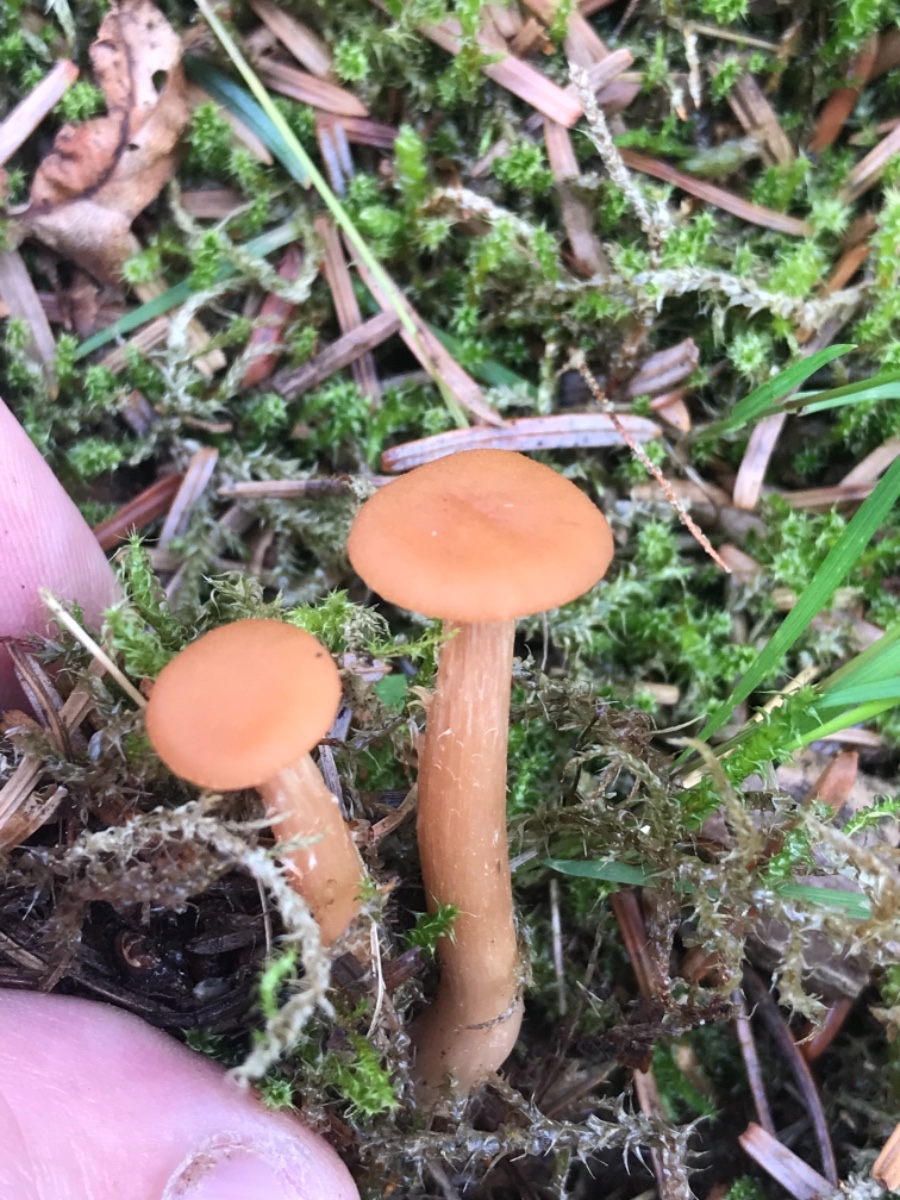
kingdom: Fungi
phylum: Basidiomycota
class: Agaricomycetes
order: Agaricales
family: Hydnangiaceae
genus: Laccaria
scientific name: Laccaria laccata
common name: rød ametysthat
